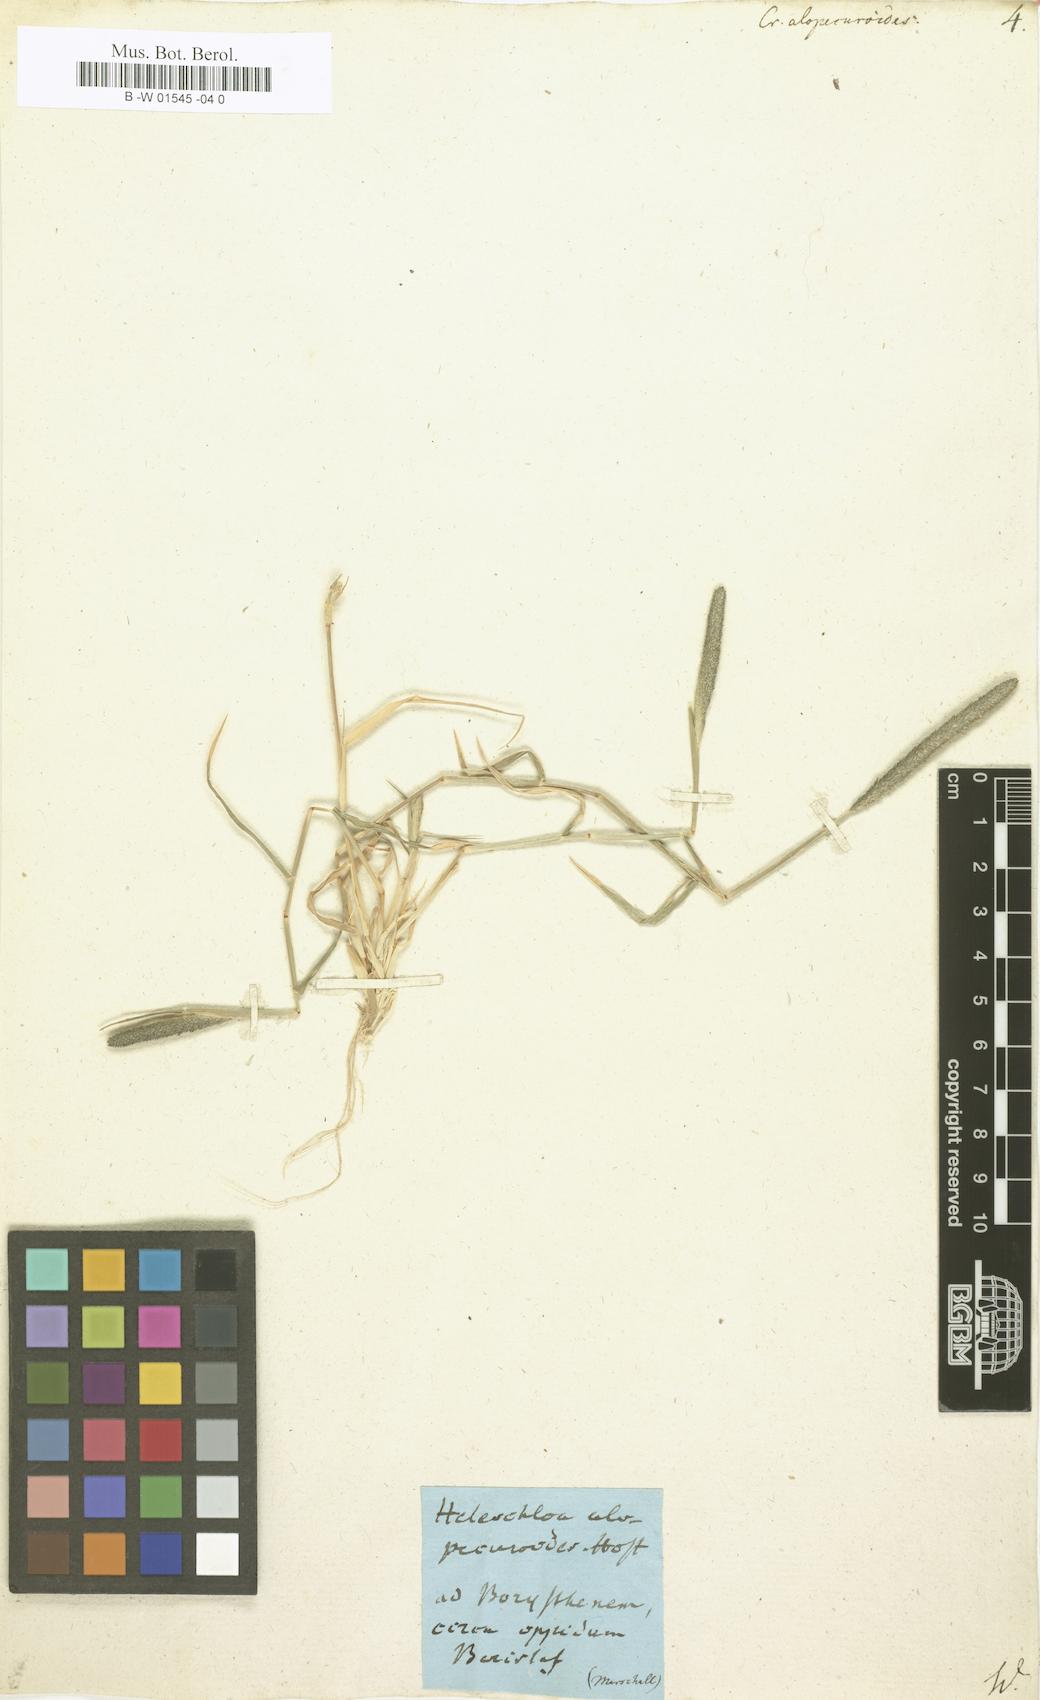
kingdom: Plantae
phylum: Tracheophyta
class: Liliopsida
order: Poales
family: Poaceae
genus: Sporobolus
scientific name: Sporobolus alopecuroides
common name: Foxtail pricklegrass
